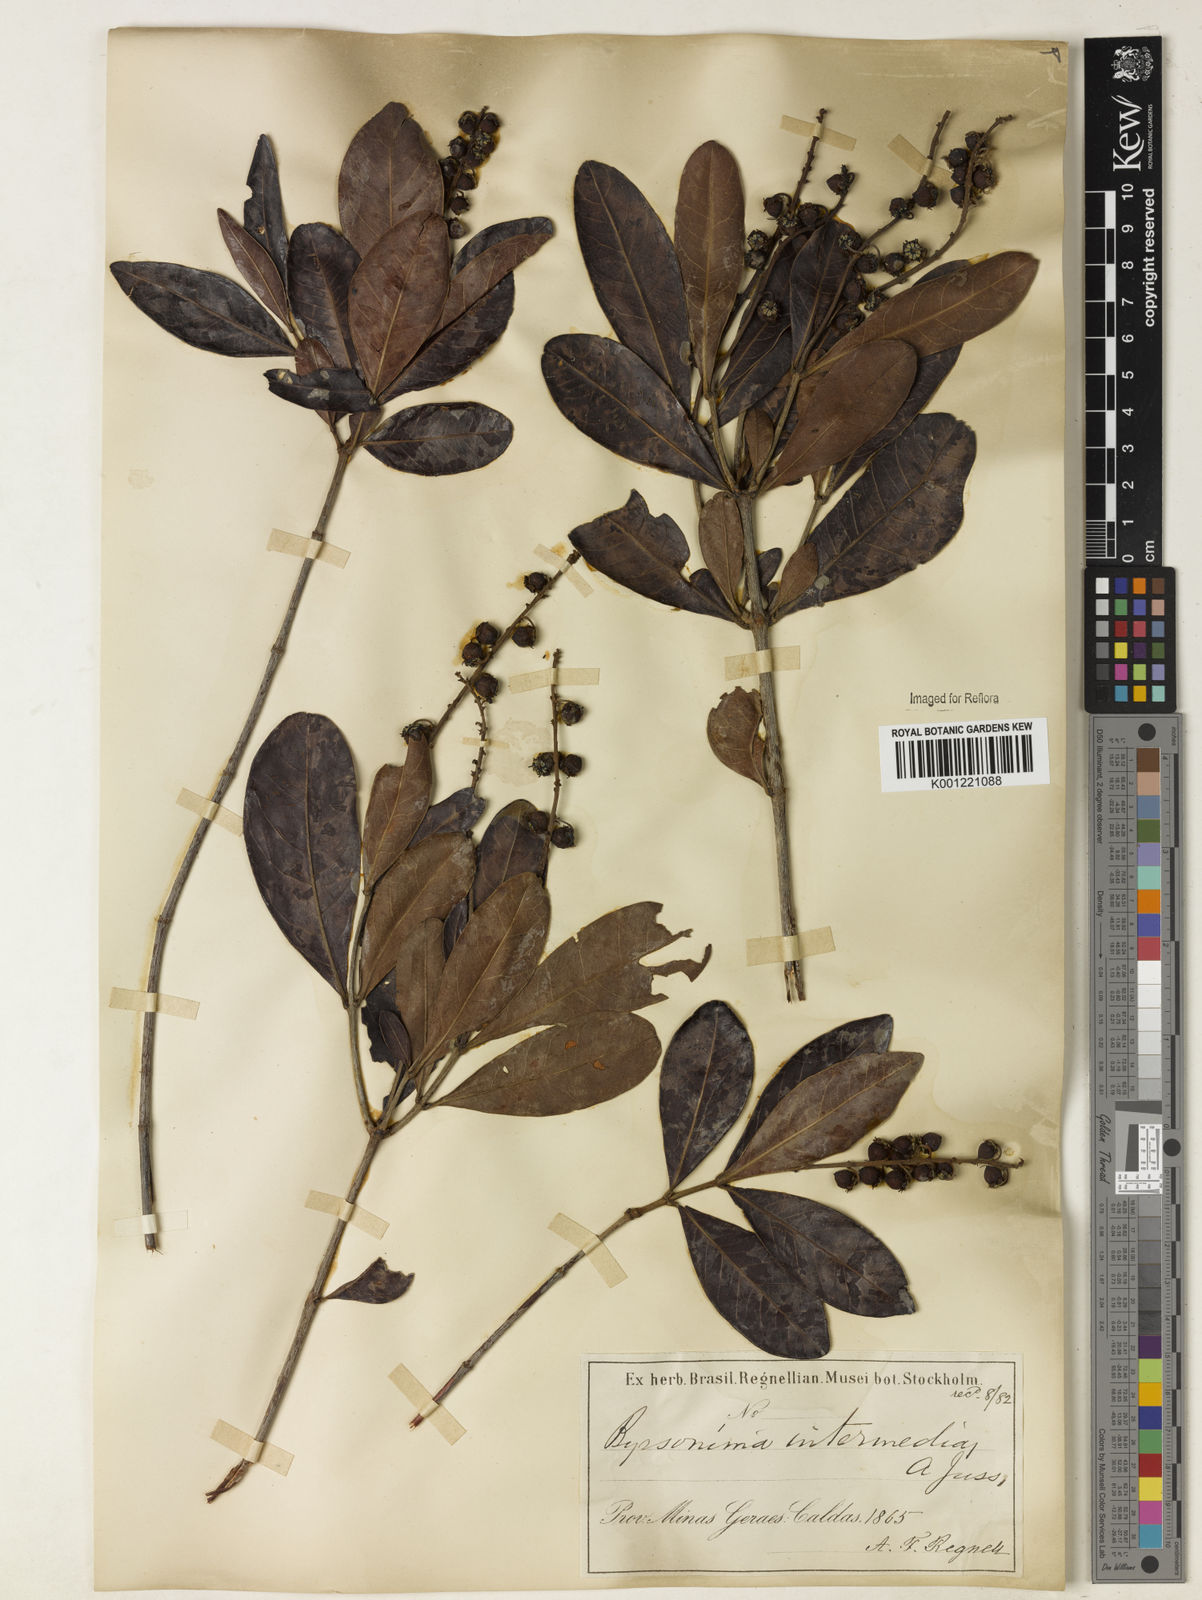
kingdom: Plantae
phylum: Tracheophyta
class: Magnoliopsida
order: Malpighiales
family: Malpighiaceae
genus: Byrsonima
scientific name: Byrsonima intermedia
